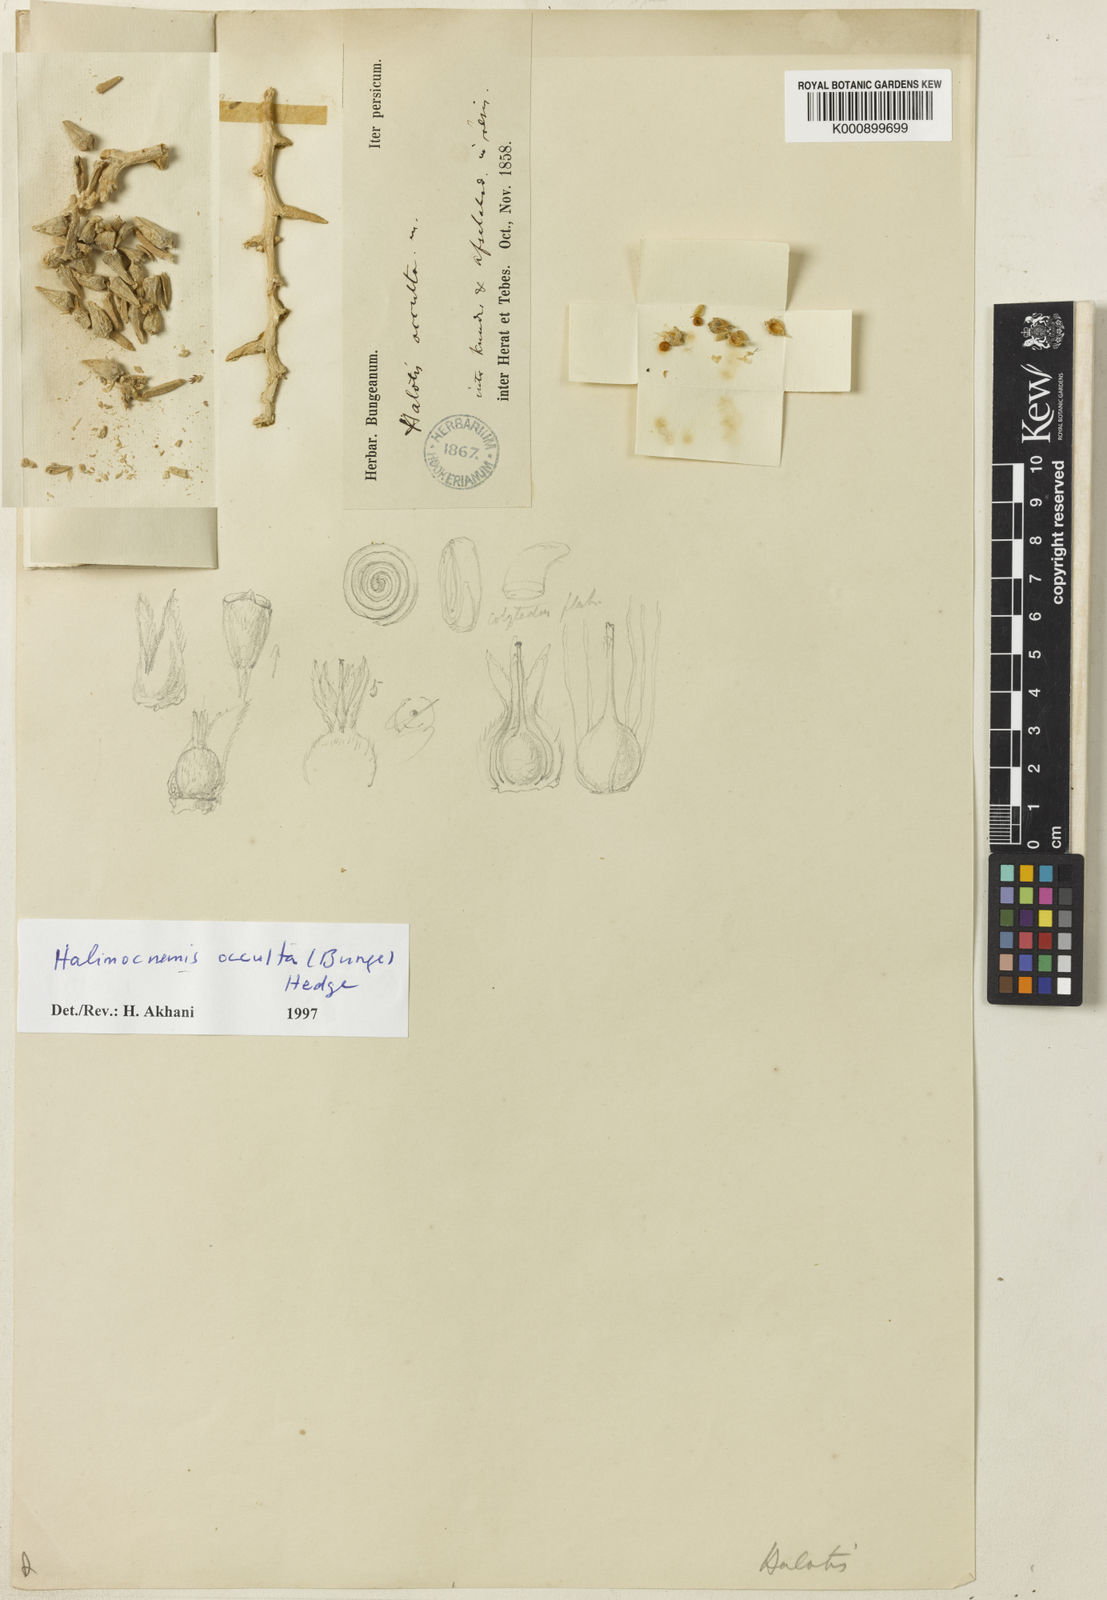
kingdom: Plantae
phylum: Tracheophyta
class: Magnoliopsida
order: Lamiales
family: Bignoniaceae
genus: Mansoa
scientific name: Mansoa
